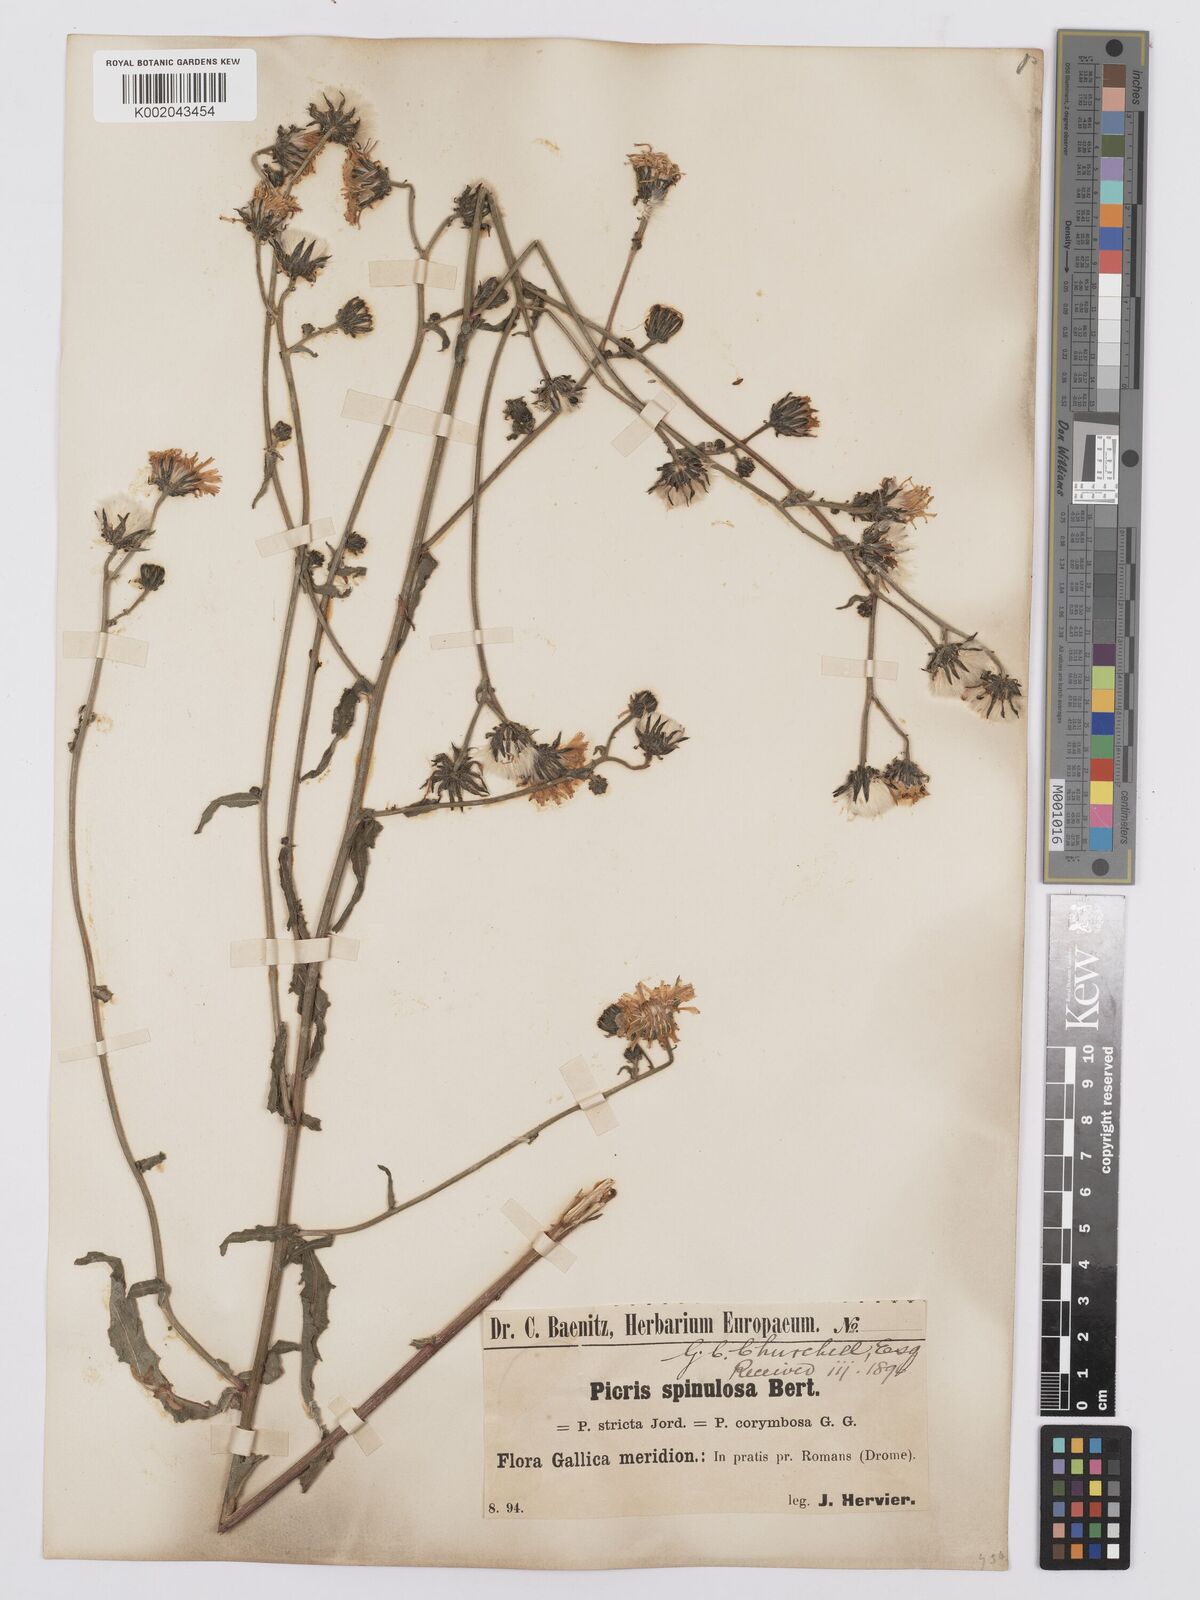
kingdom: Plantae
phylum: Tracheophyta
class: Magnoliopsida
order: Asterales
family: Asteraceae
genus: Picris
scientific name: Picris hieracioides
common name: Hawkweed oxtongue
